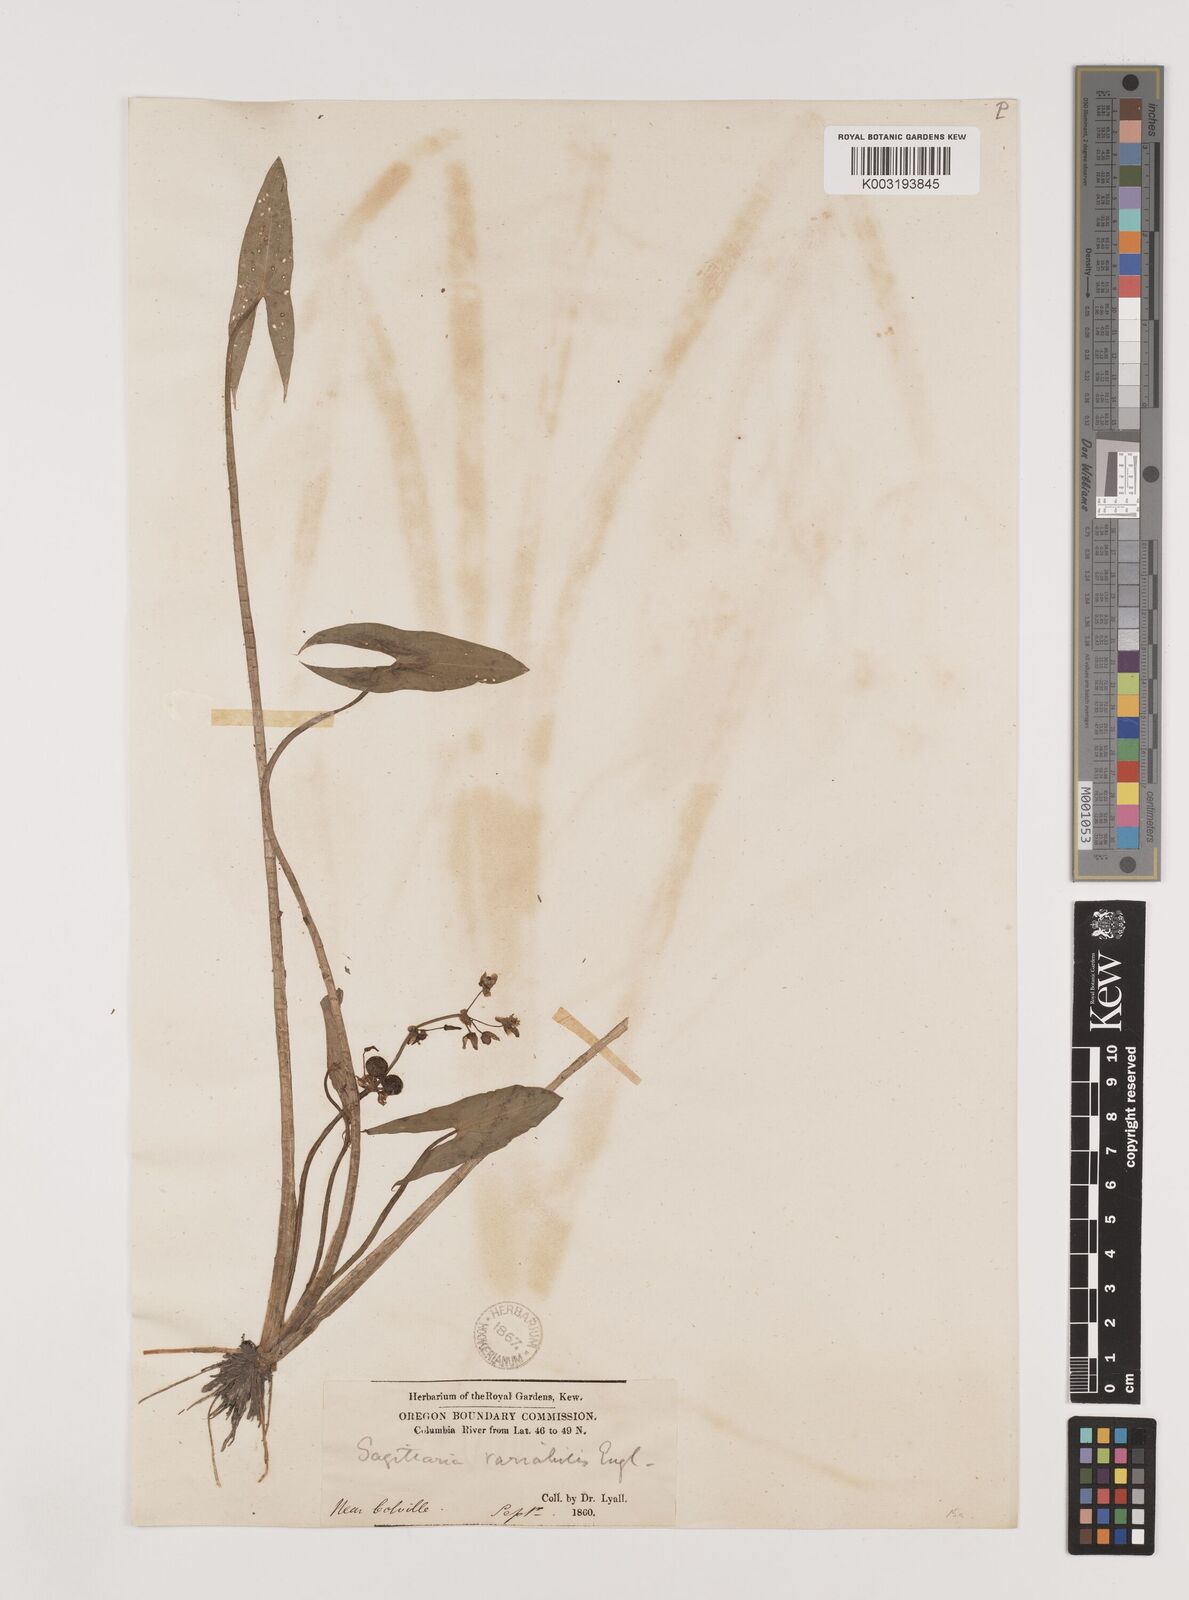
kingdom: Plantae
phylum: Tracheophyta
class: Liliopsida
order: Alismatales
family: Alismataceae
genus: Sagittaria
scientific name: Sagittaria latifolia
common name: Duck-potato
